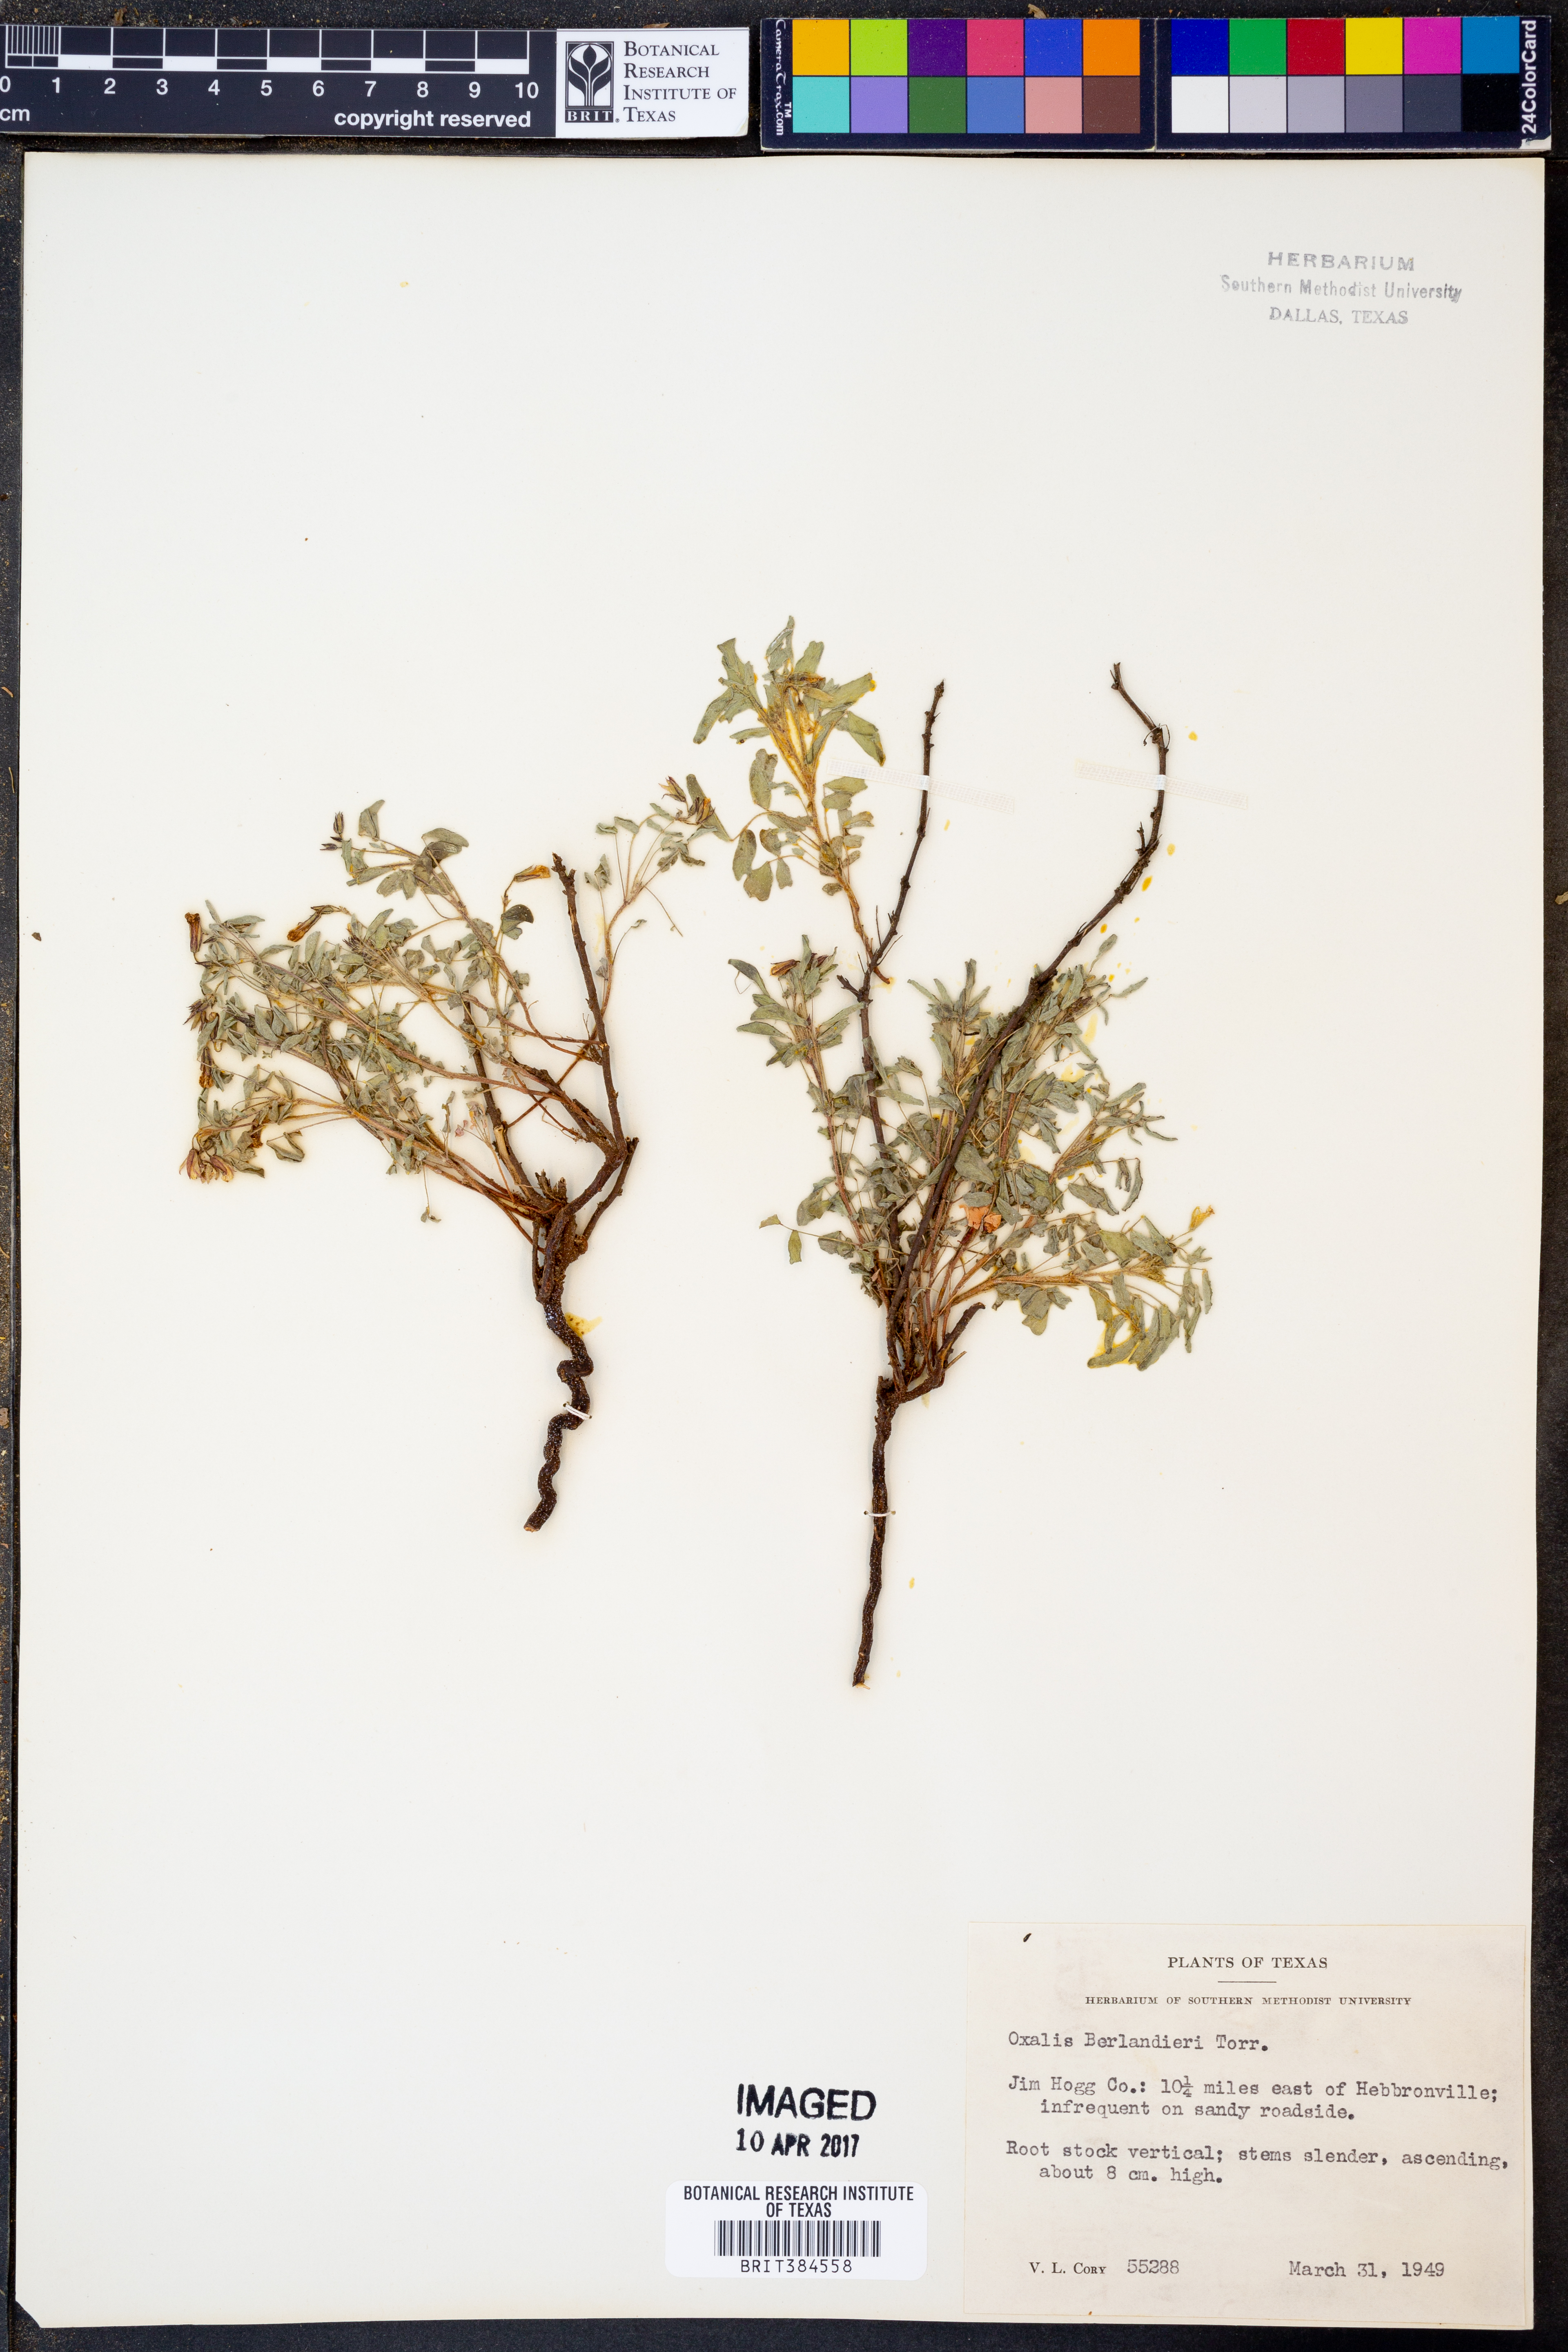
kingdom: Plantae
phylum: Tracheophyta
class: Magnoliopsida
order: Oxalidales
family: Oxalidaceae
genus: Oxalis
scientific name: Oxalis frutescens
